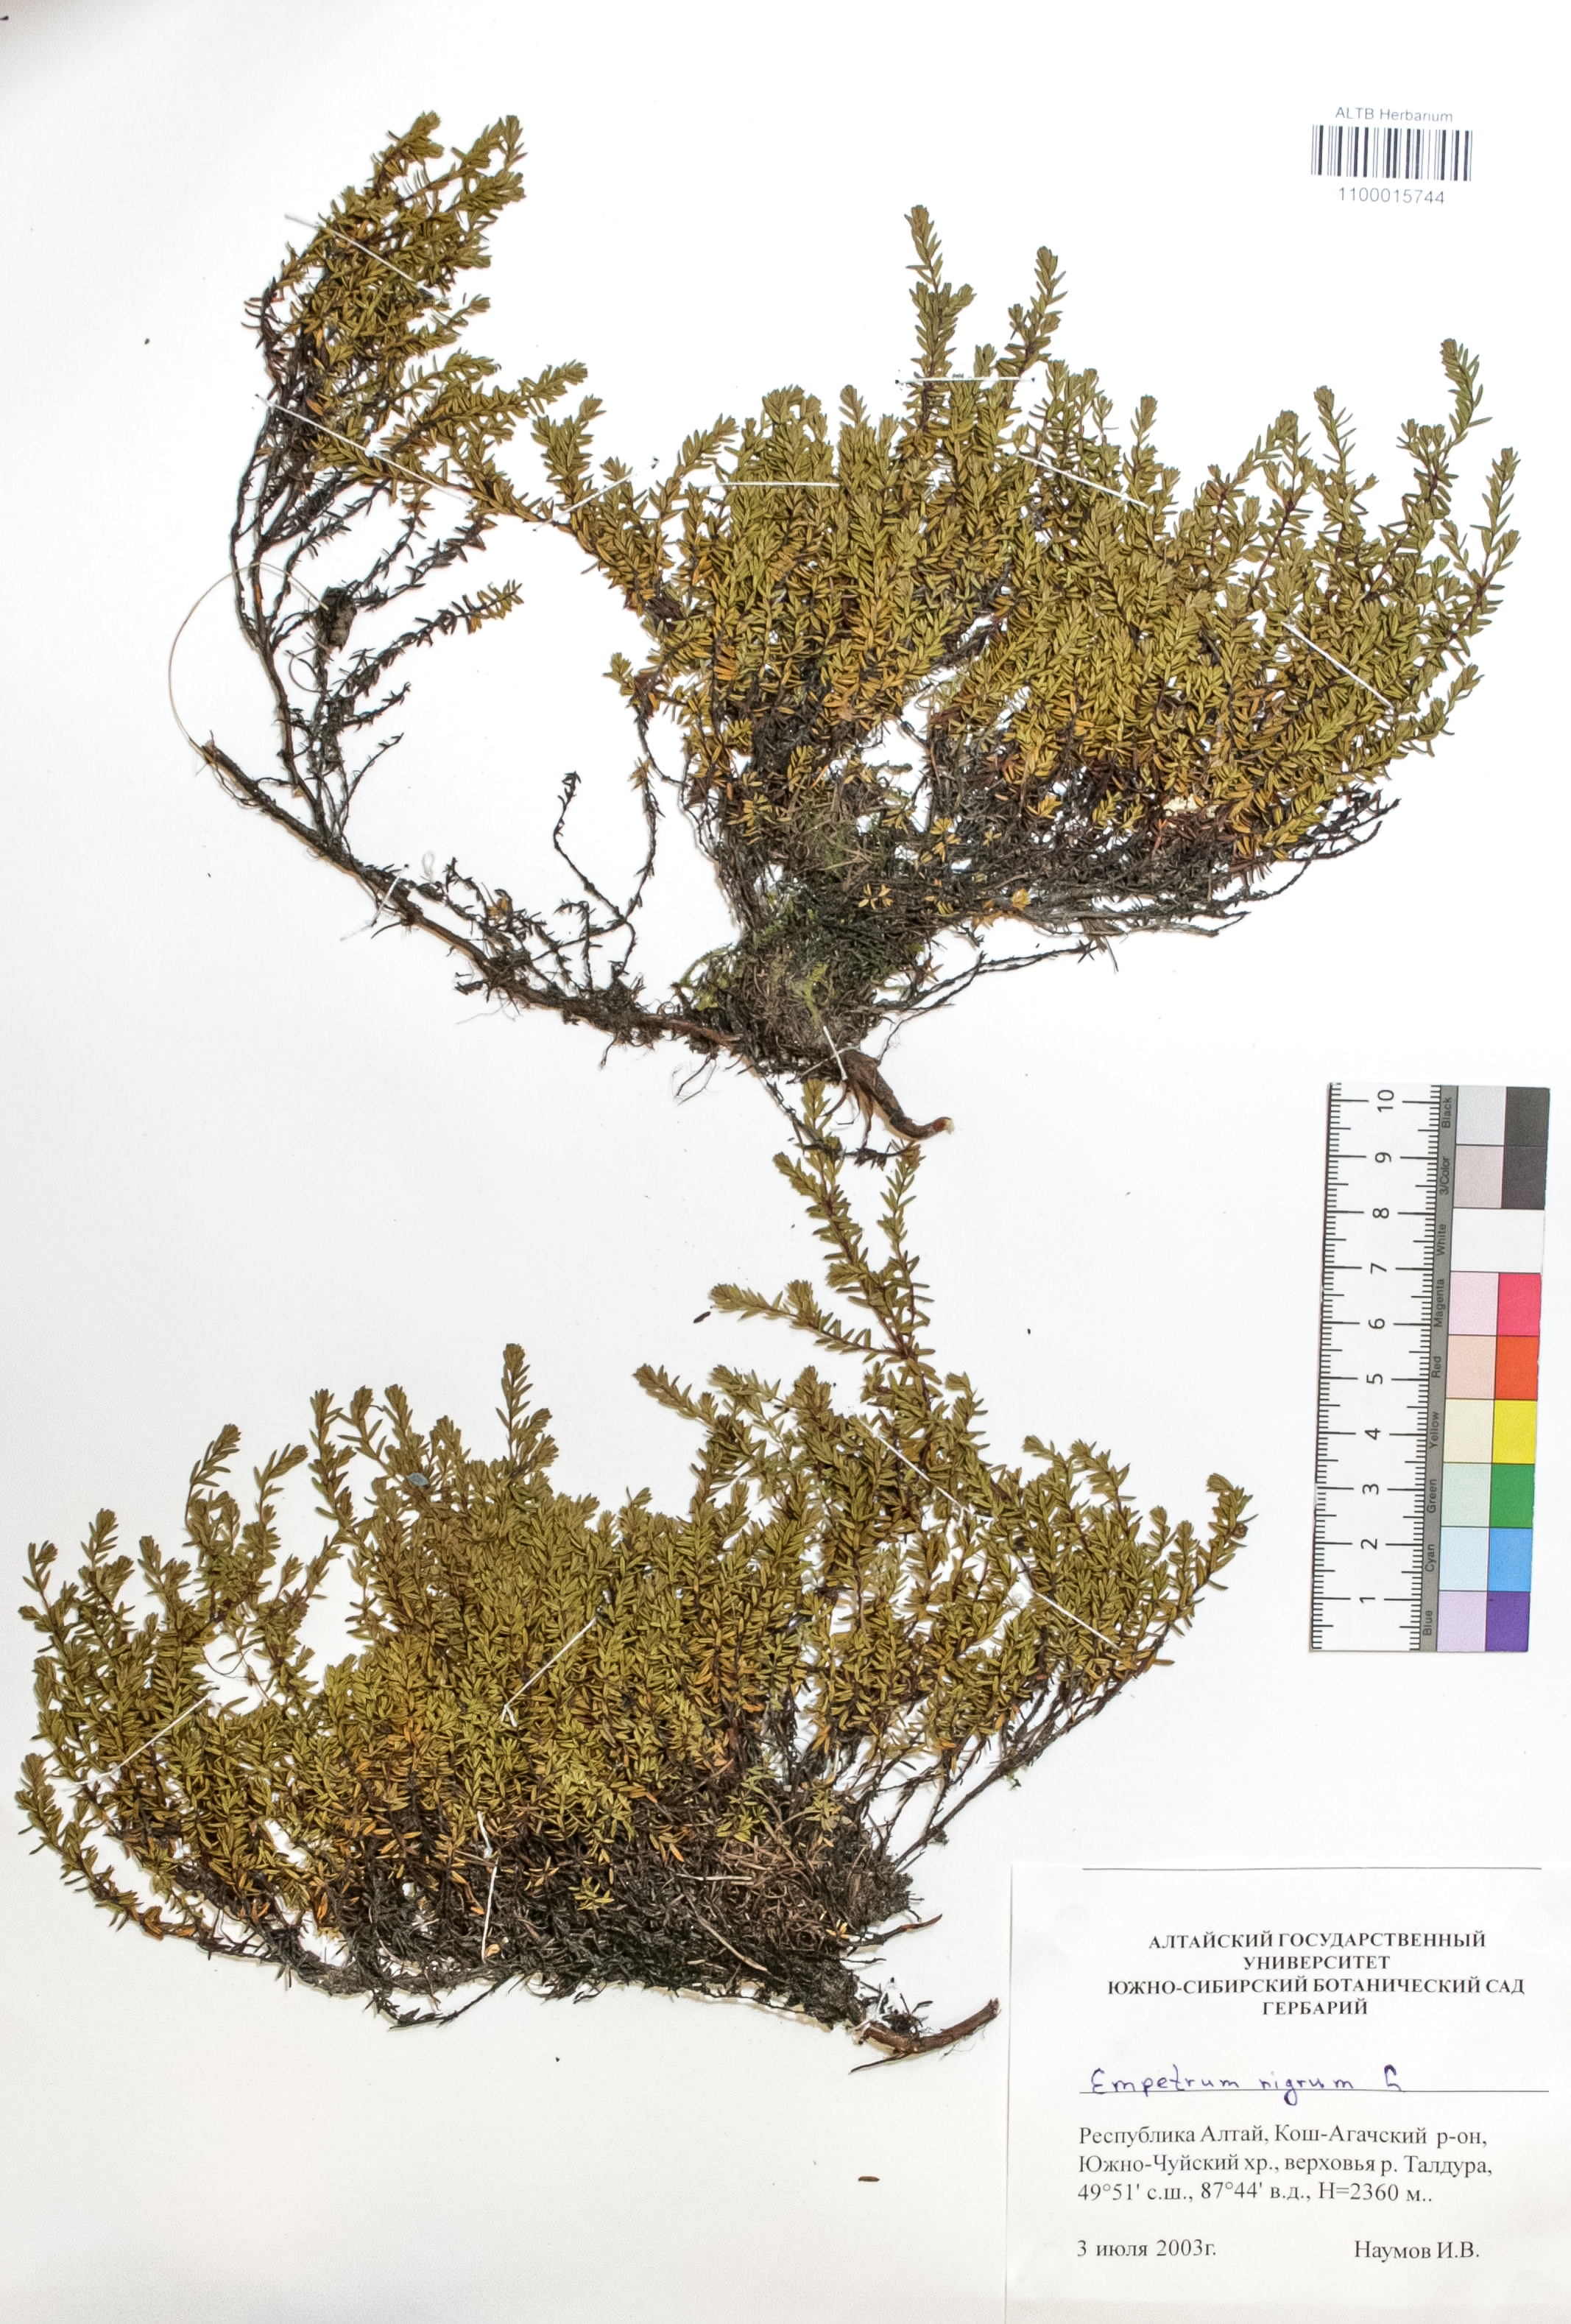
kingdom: Plantae
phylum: Tracheophyta
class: Magnoliopsida
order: Ericales
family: Ericaceae
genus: Empetrum
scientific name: Empetrum nigrum
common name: Black crowberry
